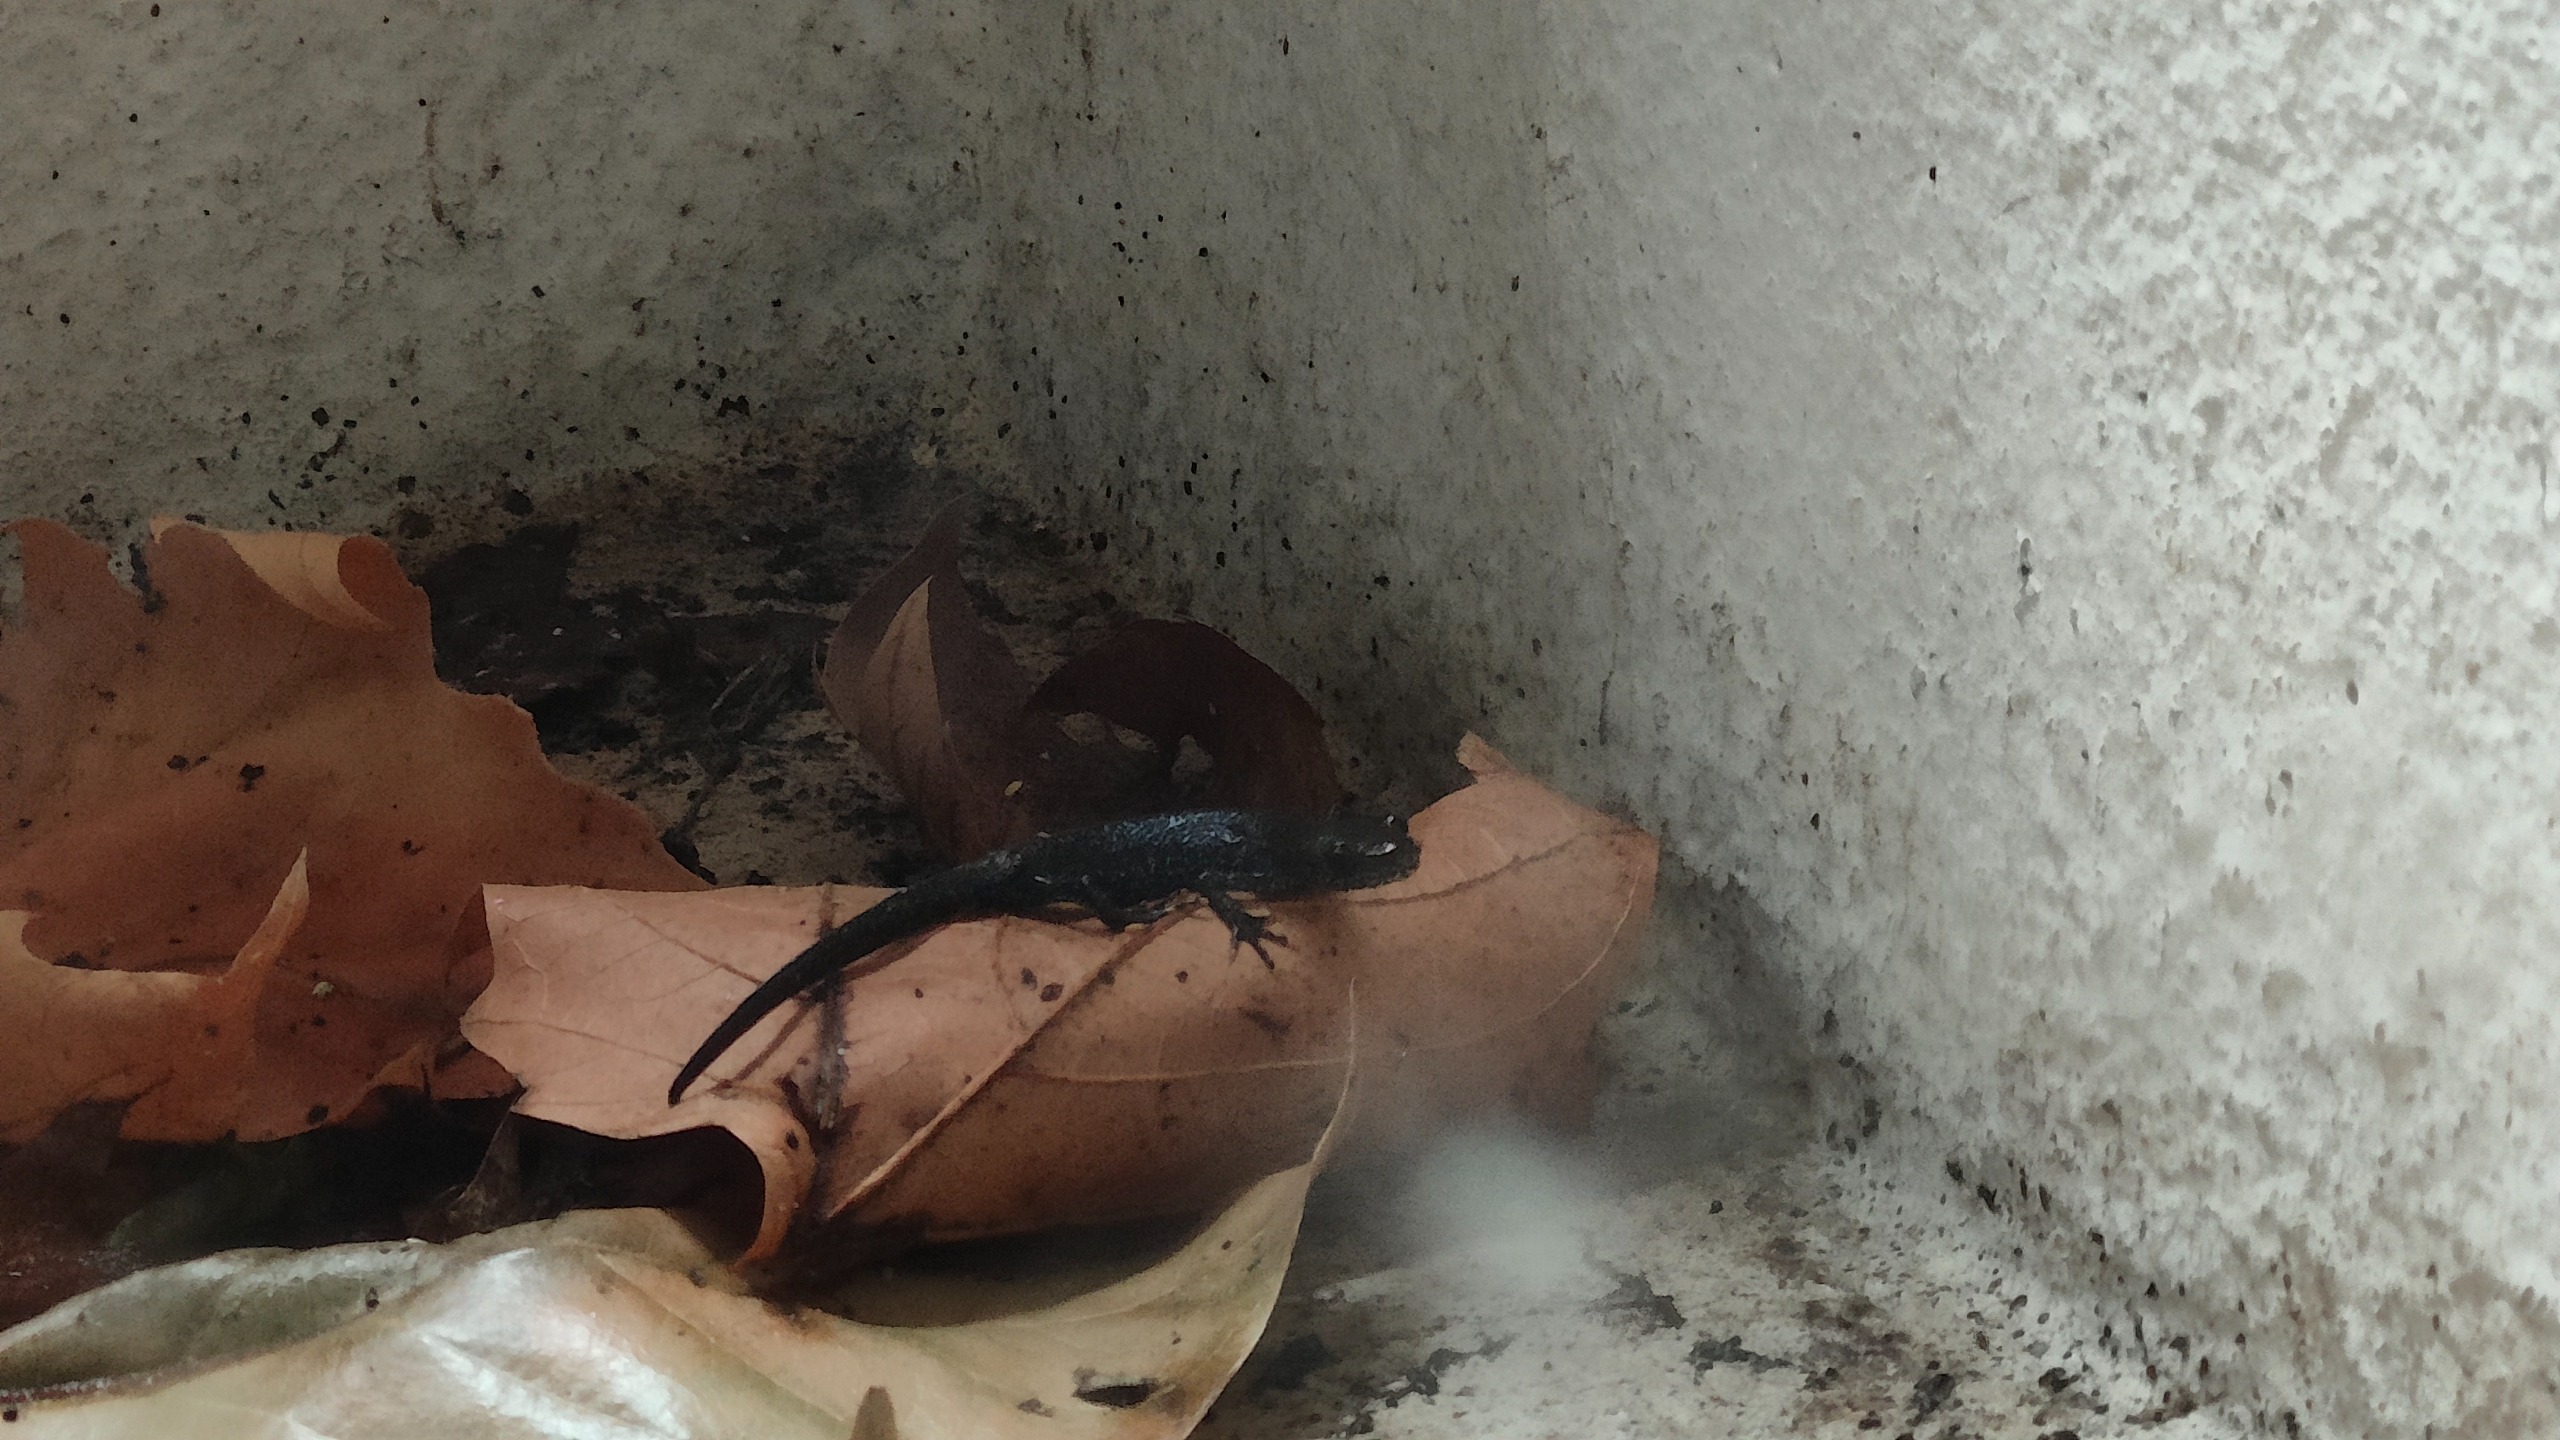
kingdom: Animalia
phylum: Chordata
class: Amphibia
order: Caudata
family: Salamandridae
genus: Triturus
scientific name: Triturus cristatus
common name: Stor vandsalamander
